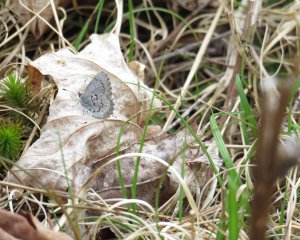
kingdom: Animalia
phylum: Arthropoda
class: Insecta
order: Lepidoptera
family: Lycaenidae
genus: Celastrina
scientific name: Celastrina lucia
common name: Northern Spring Azure
